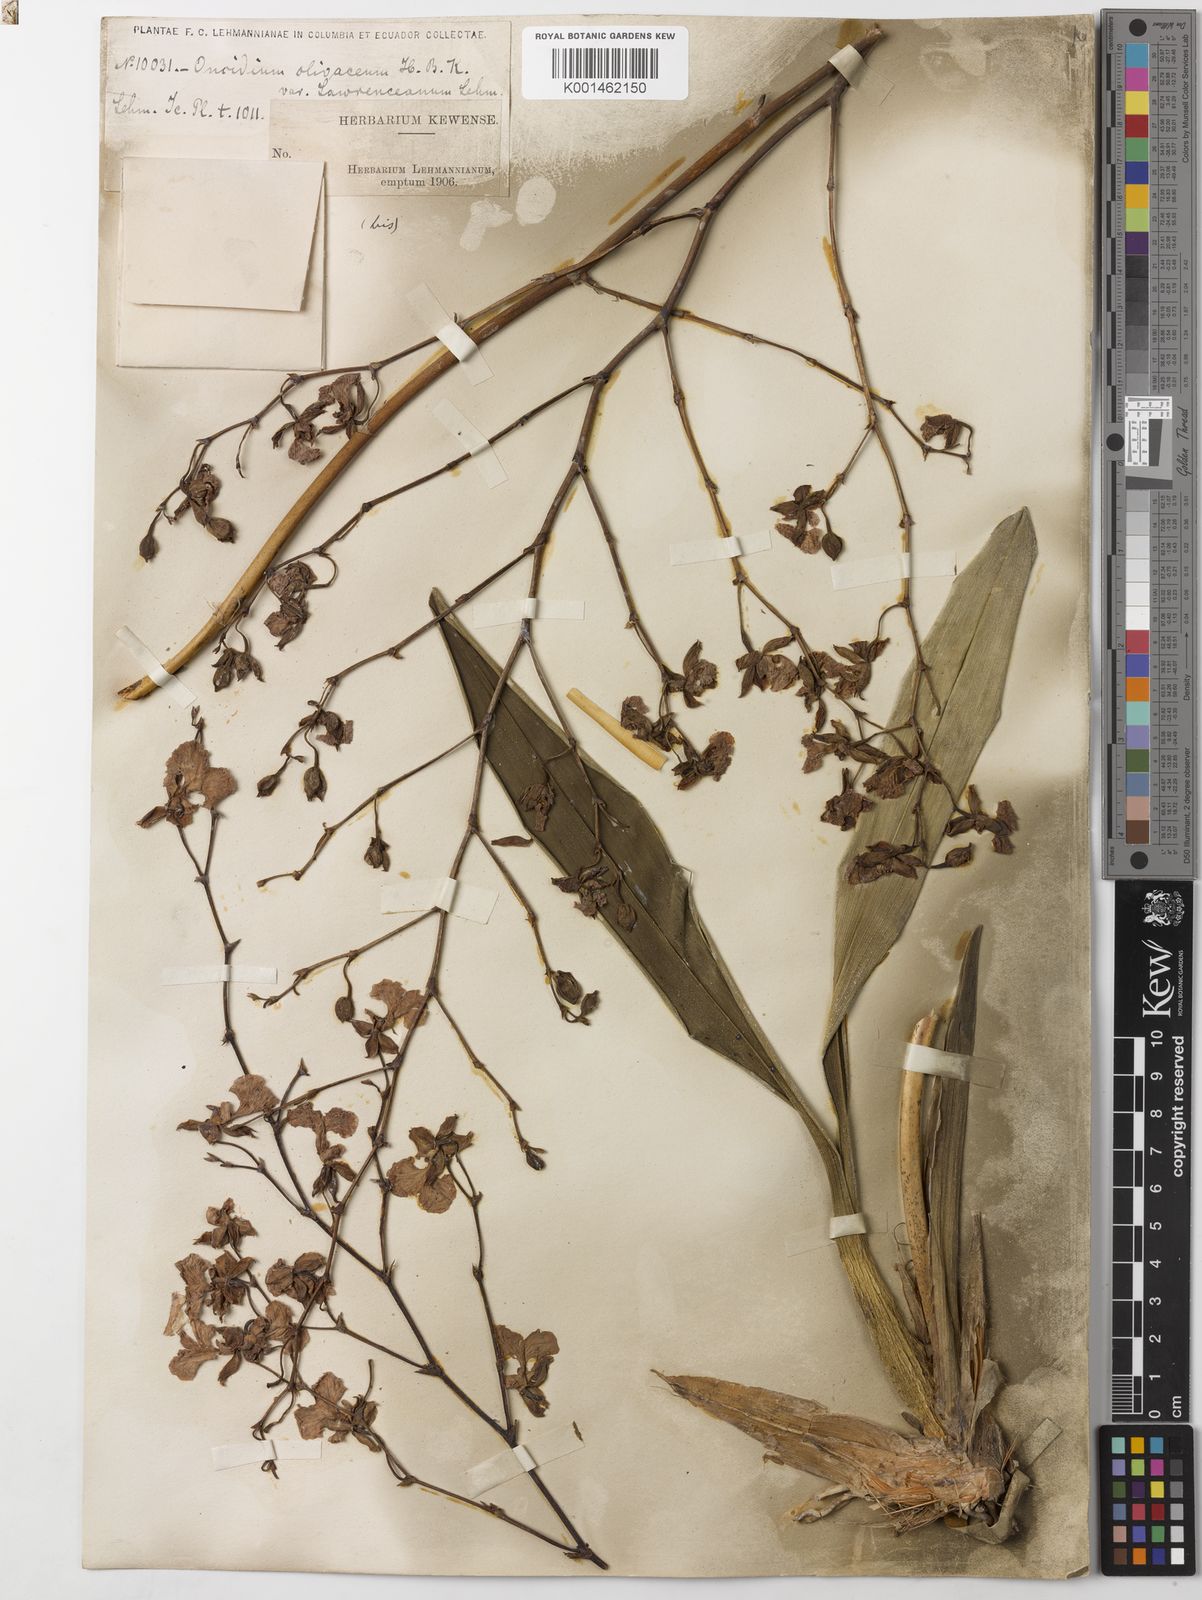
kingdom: Plantae
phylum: Tracheophyta
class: Liliopsida
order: Asparagales
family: Orchidaceae
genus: Caucaea
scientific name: Caucaea olivacea
